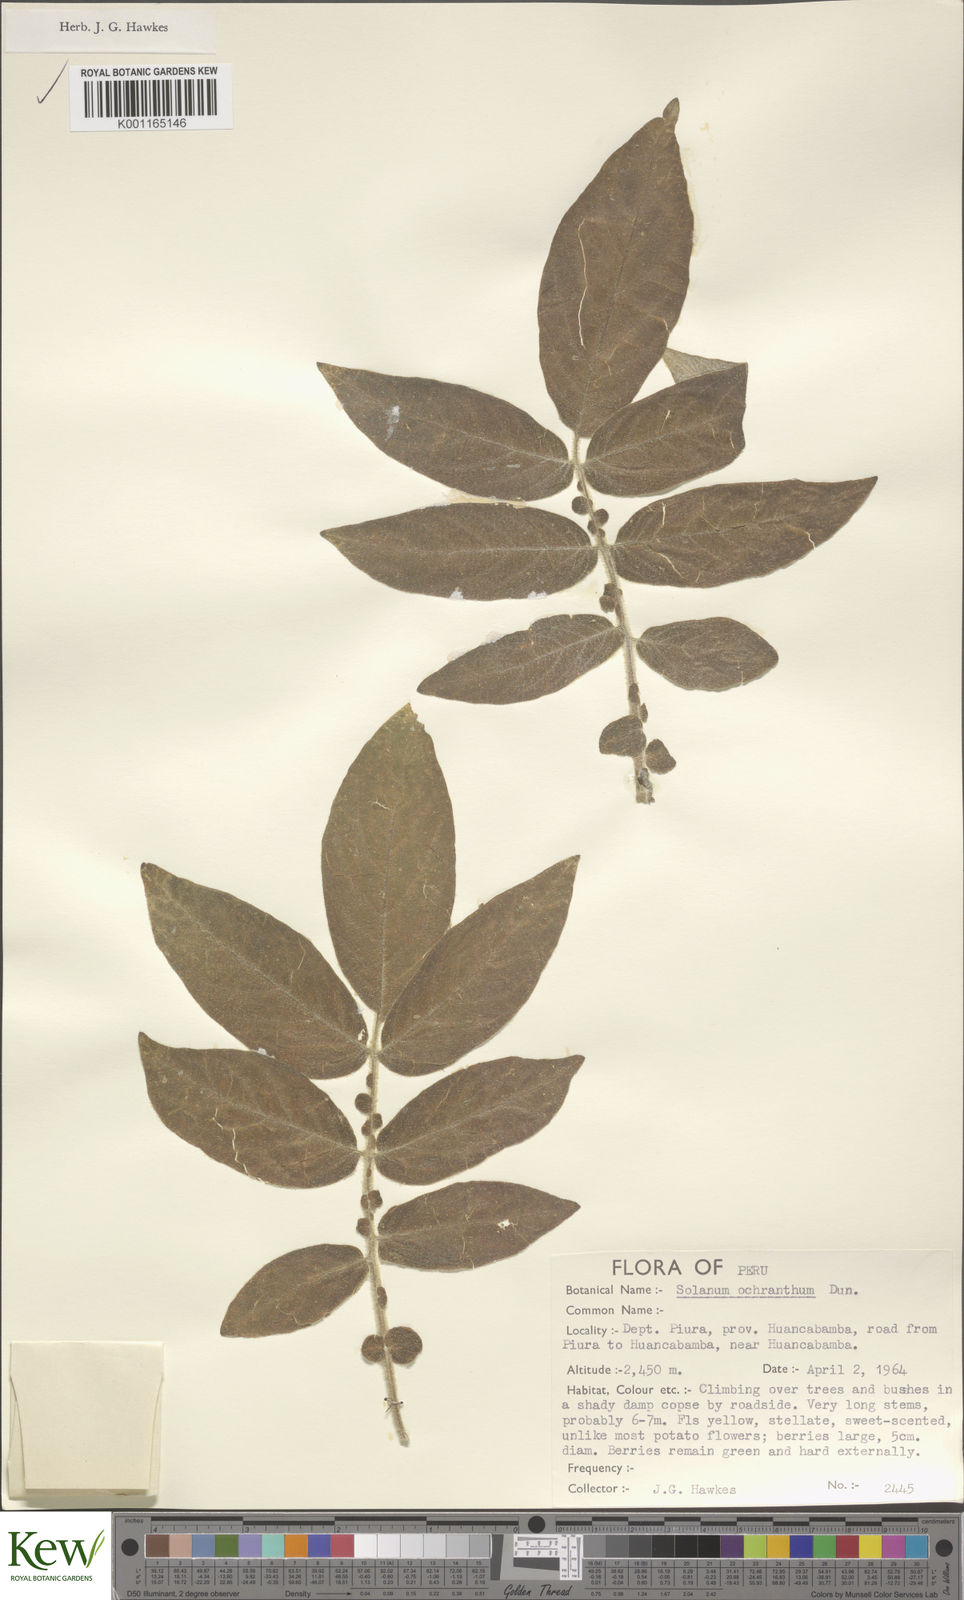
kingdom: Plantae
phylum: Tracheophyta
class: Magnoliopsida
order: Solanales
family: Solanaceae
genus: Solanum
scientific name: Solanum ochranthum
